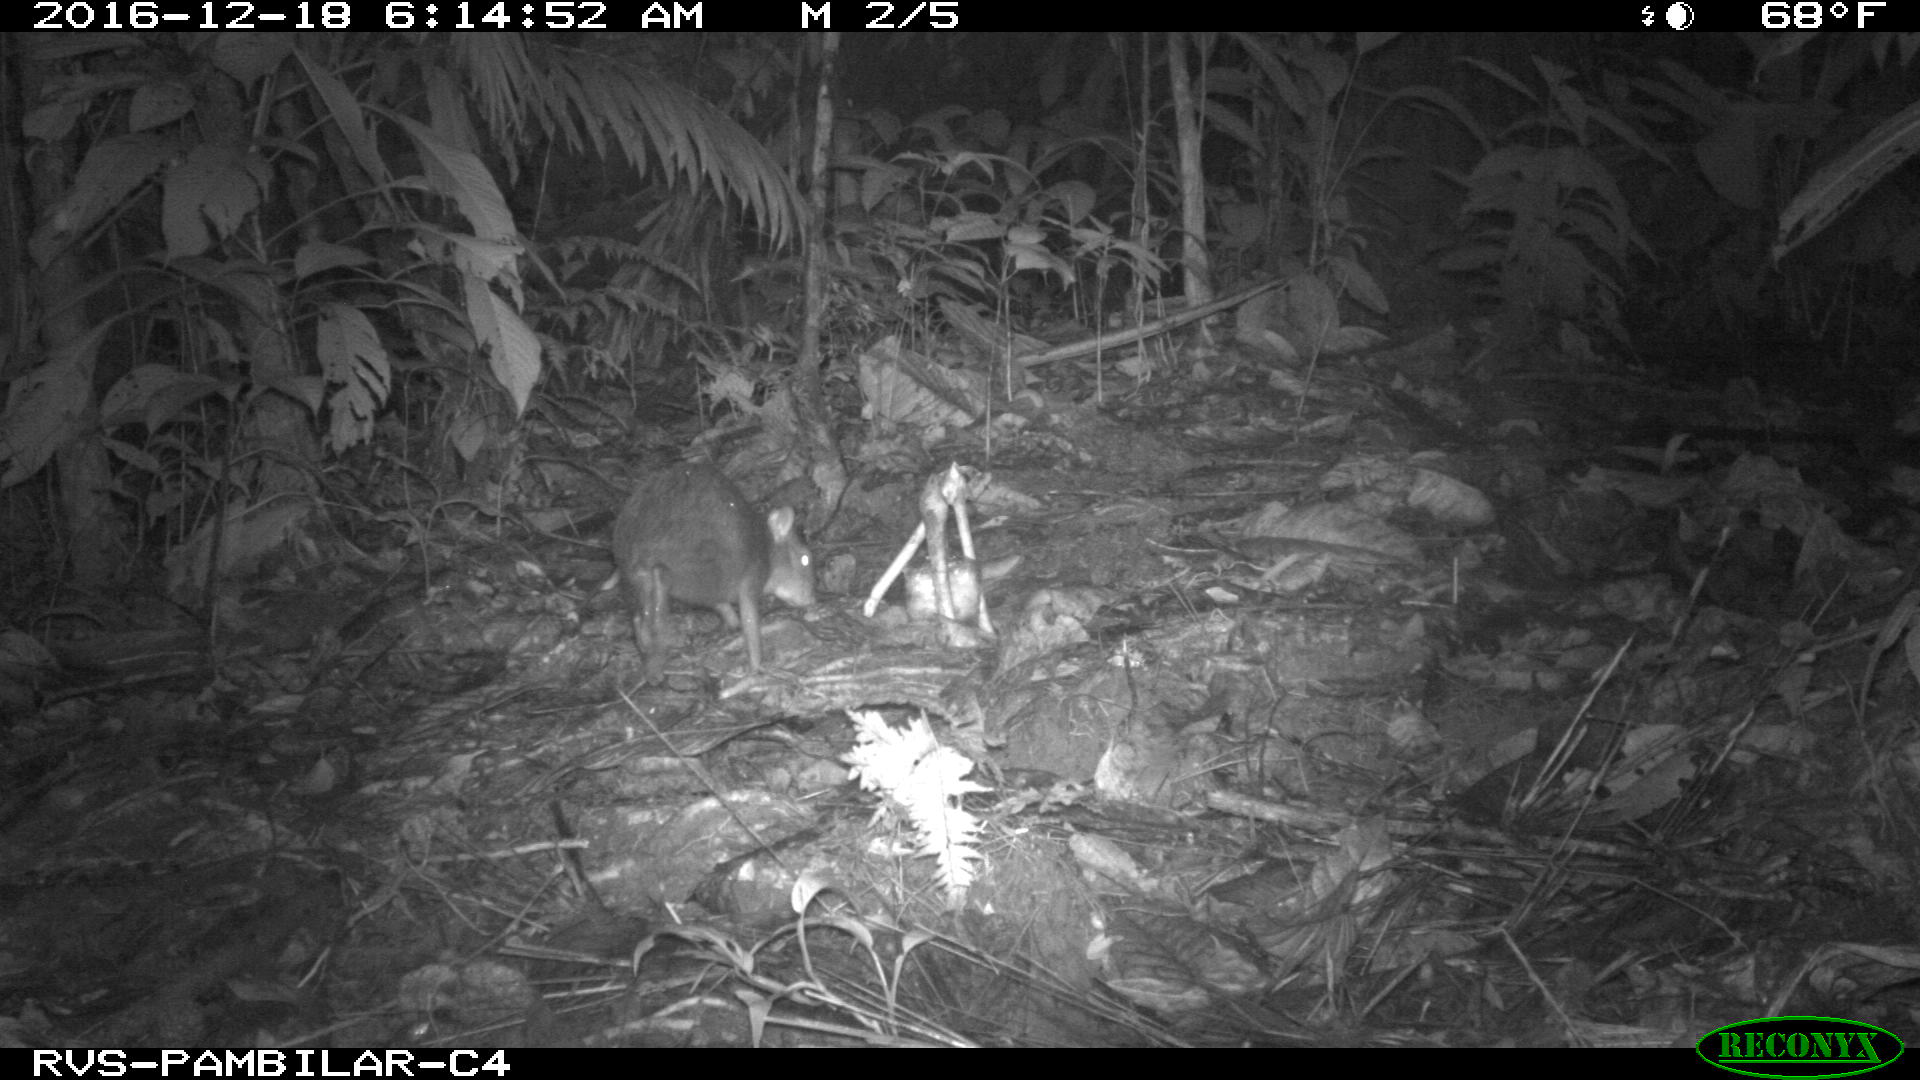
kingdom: Animalia
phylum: Chordata
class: Mammalia
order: Rodentia
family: Dasyproctidae
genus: Dasyprocta
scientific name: Dasyprocta punctata
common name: Central american agouti
